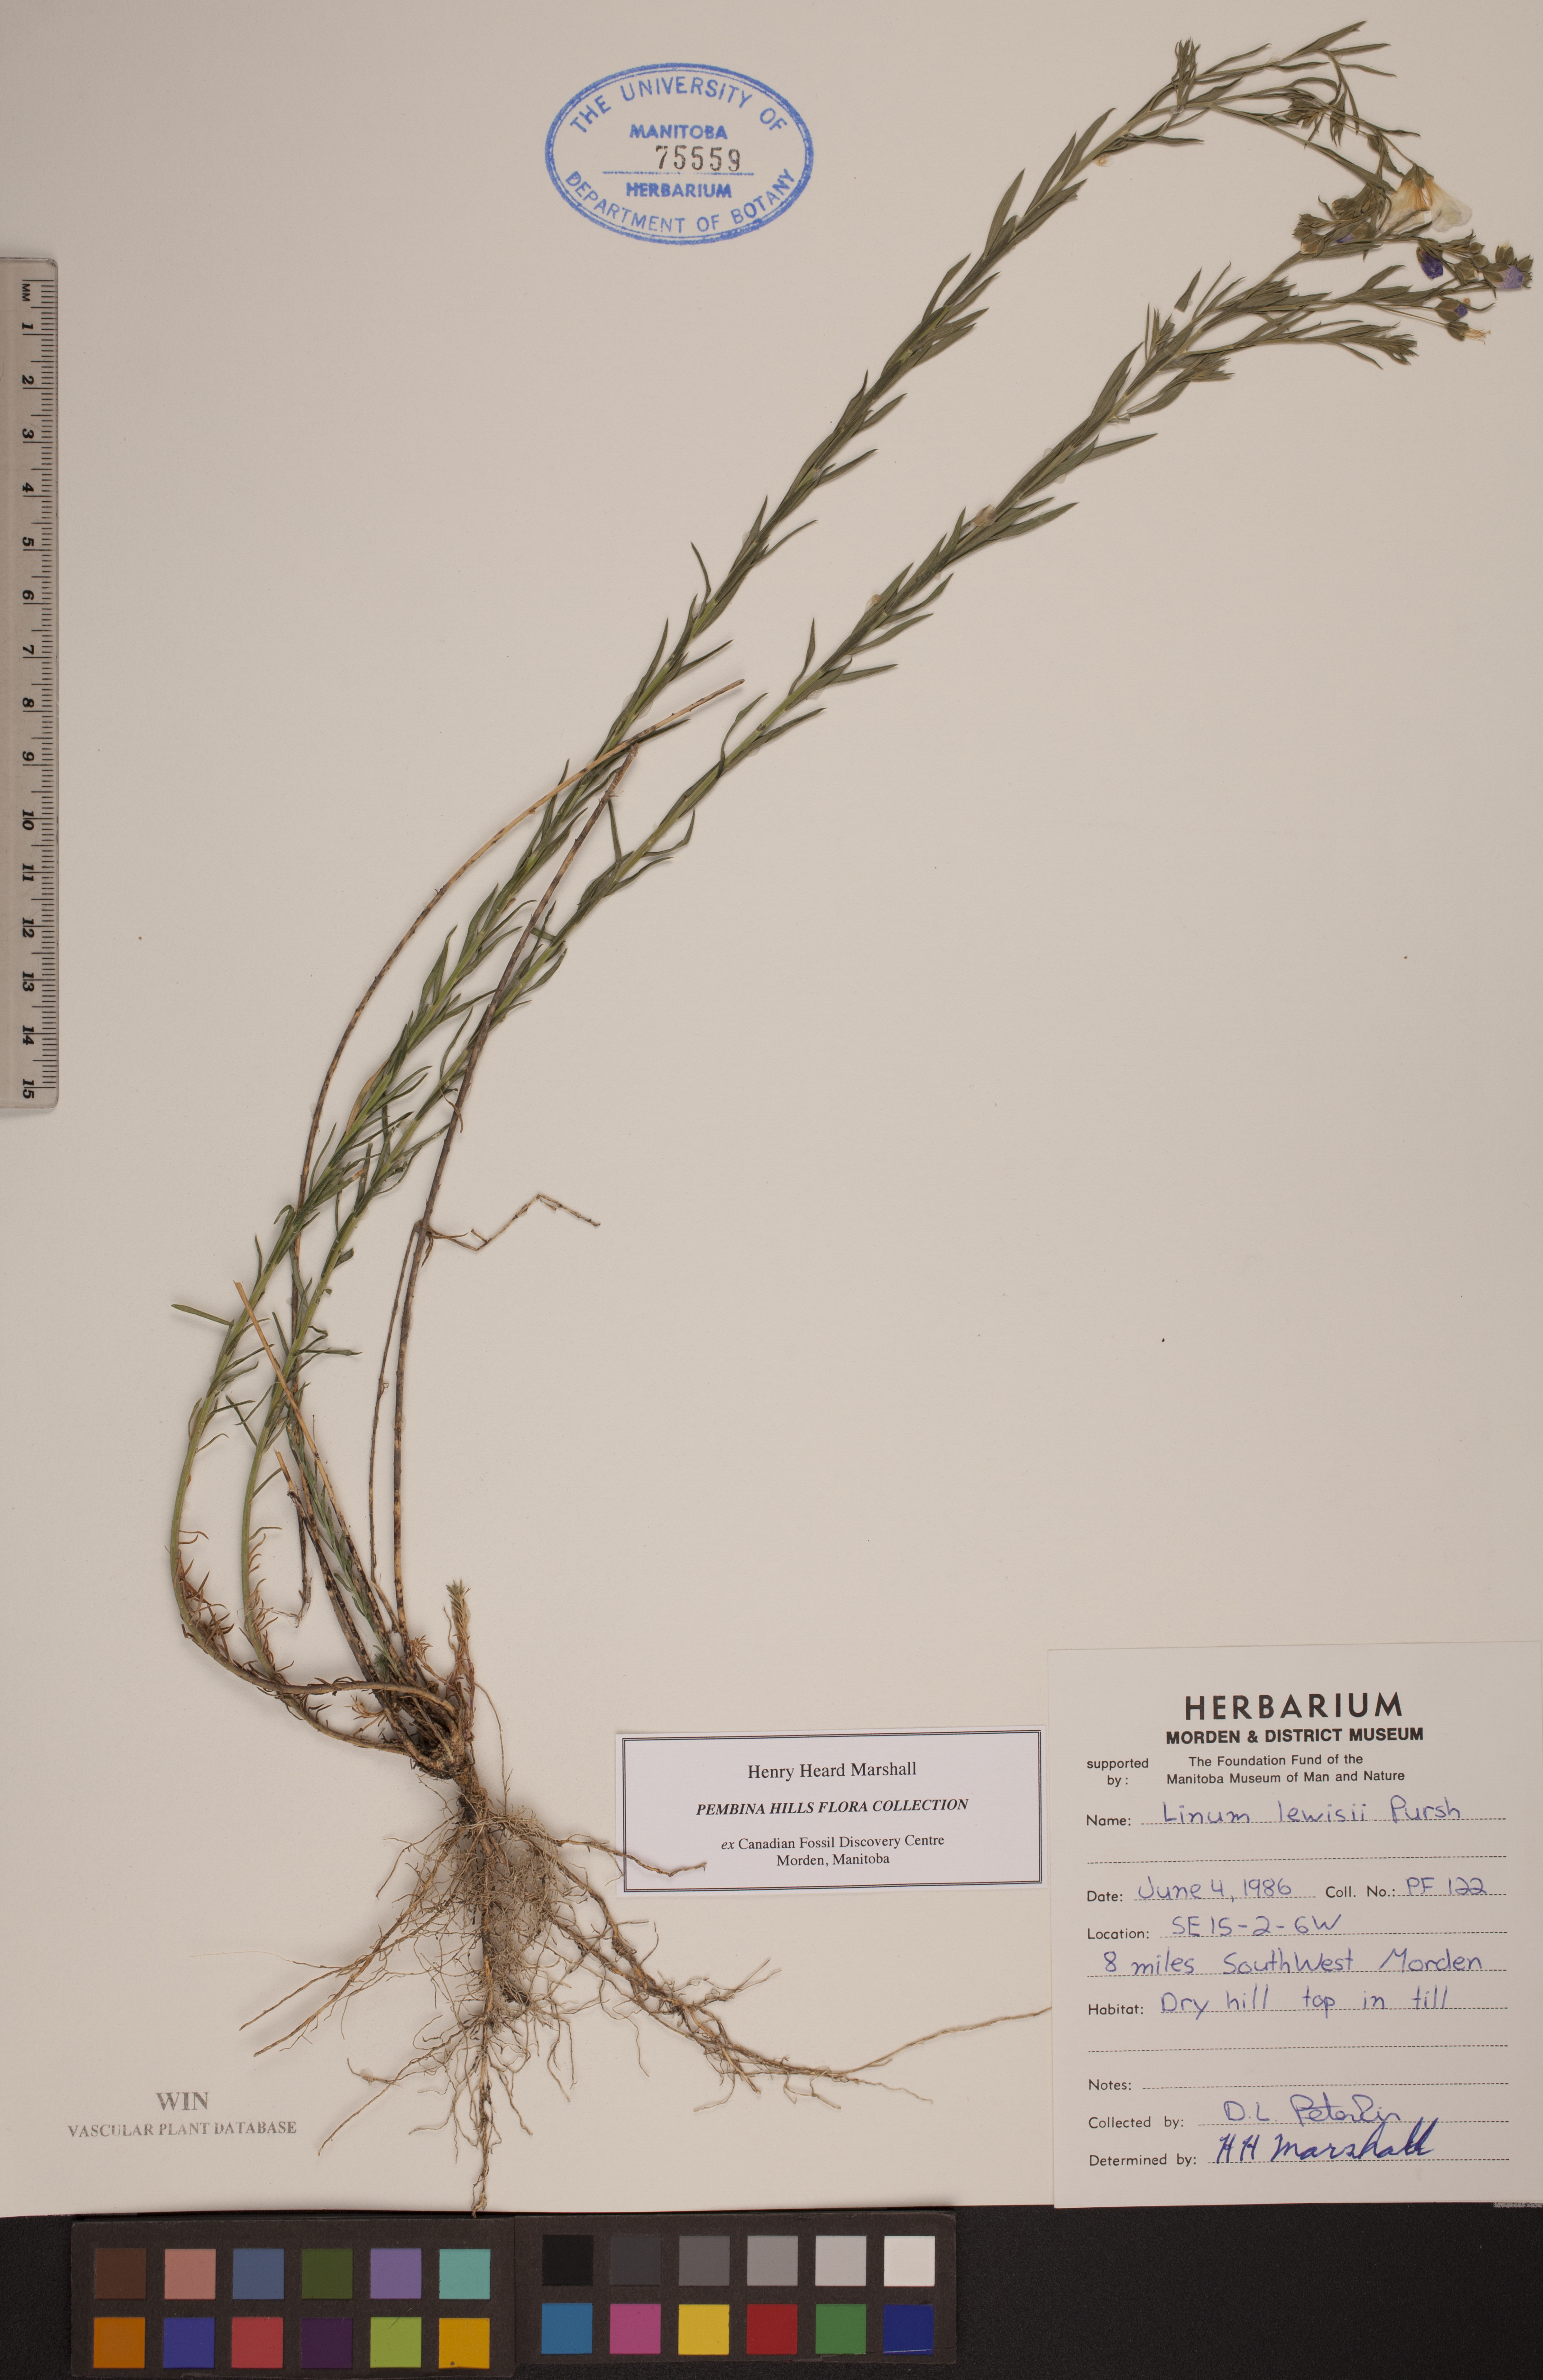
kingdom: Plantae
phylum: Tracheophyta
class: Magnoliopsida
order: Malpighiales
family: Linaceae
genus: Linum
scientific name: Linum lewisii
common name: Prairie flax
